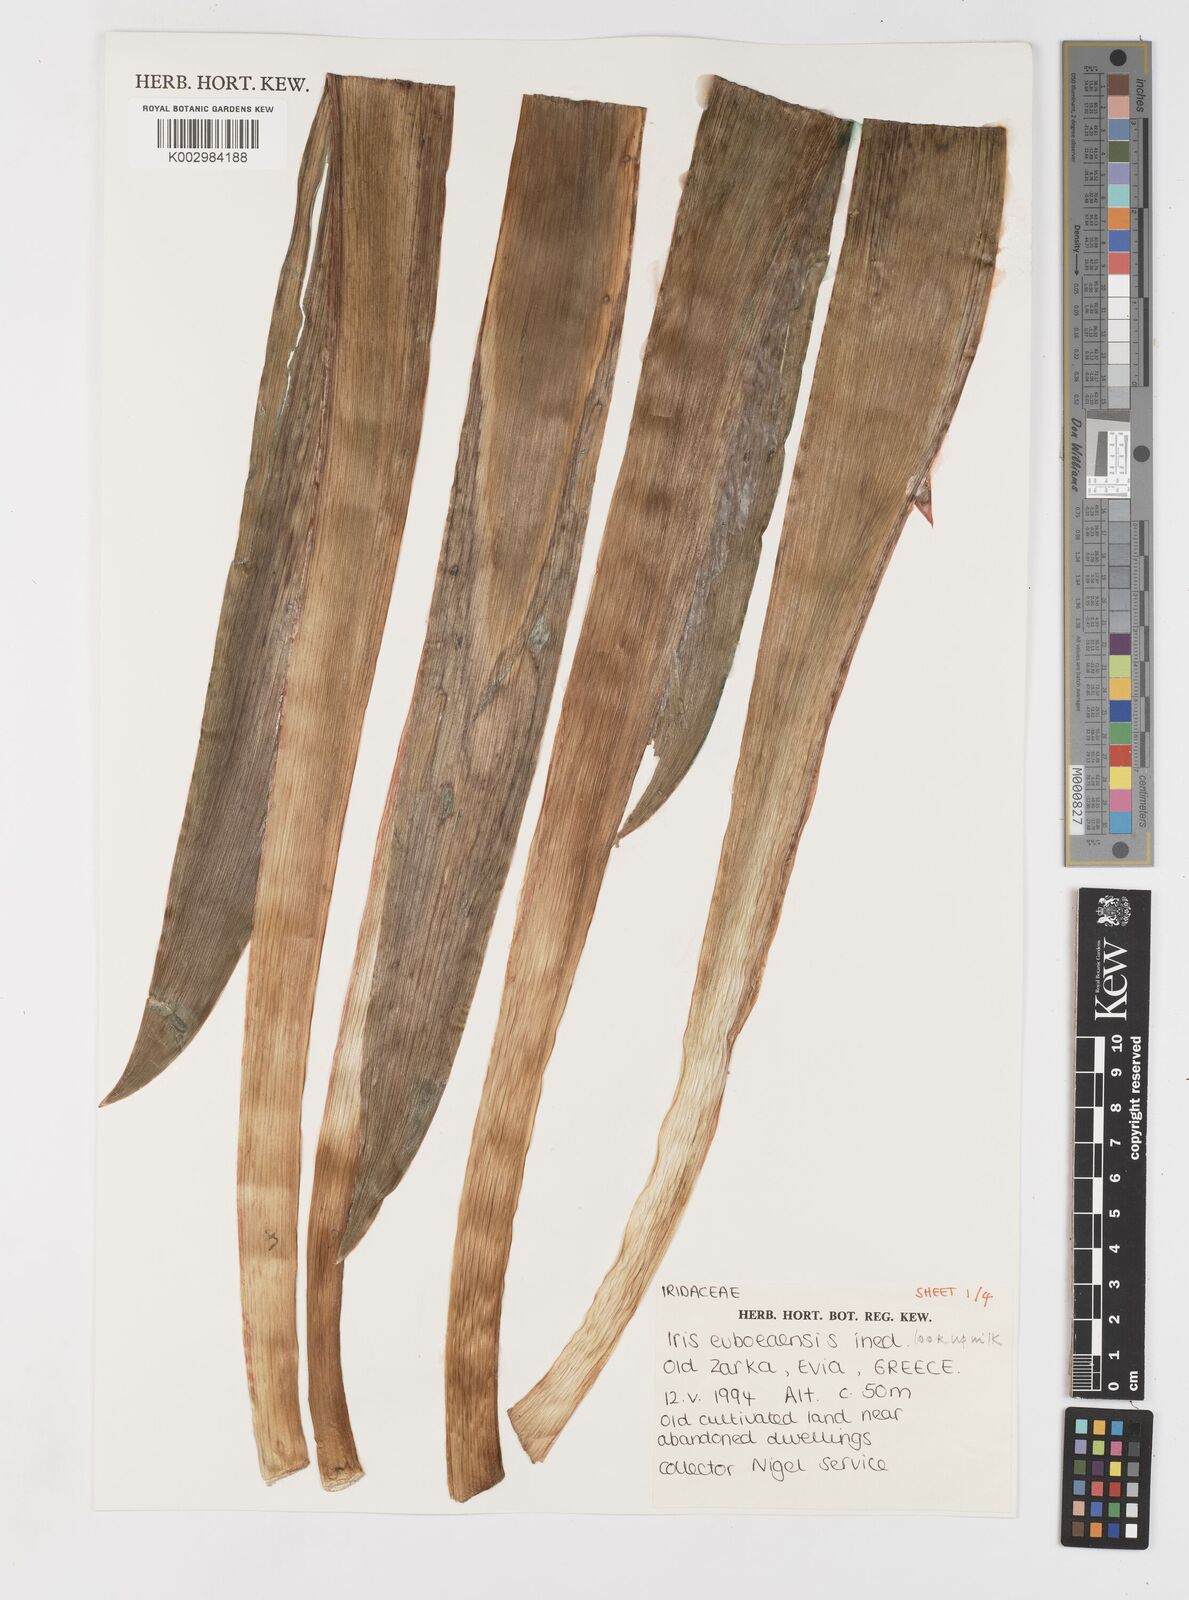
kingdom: Plantae
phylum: Tracheophyta
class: Liliopsida
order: Asparagales
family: Iridaceae
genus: Iris
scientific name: Iris
